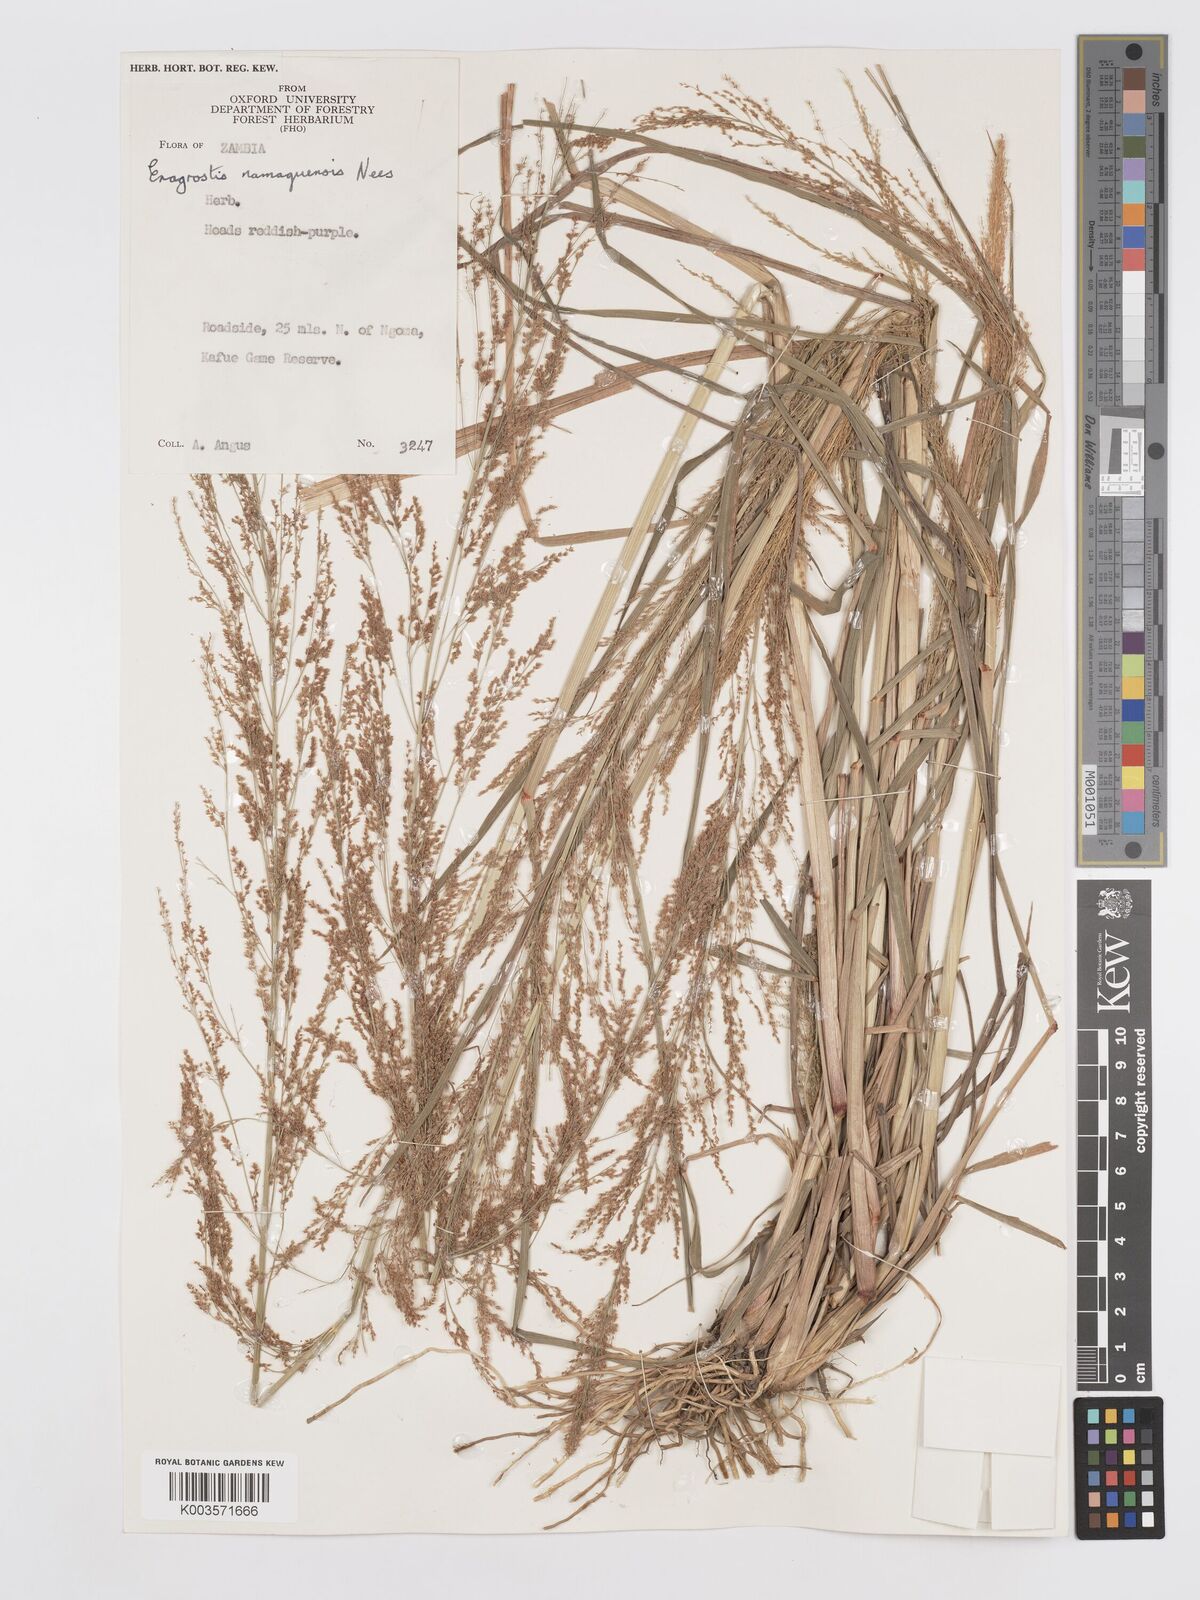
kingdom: Plantae
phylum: Tracheophyta
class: Liliopsida
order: Poales
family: Poaceae
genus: Eragrostis
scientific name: Eragrostis japonica
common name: Pond lovegrass
